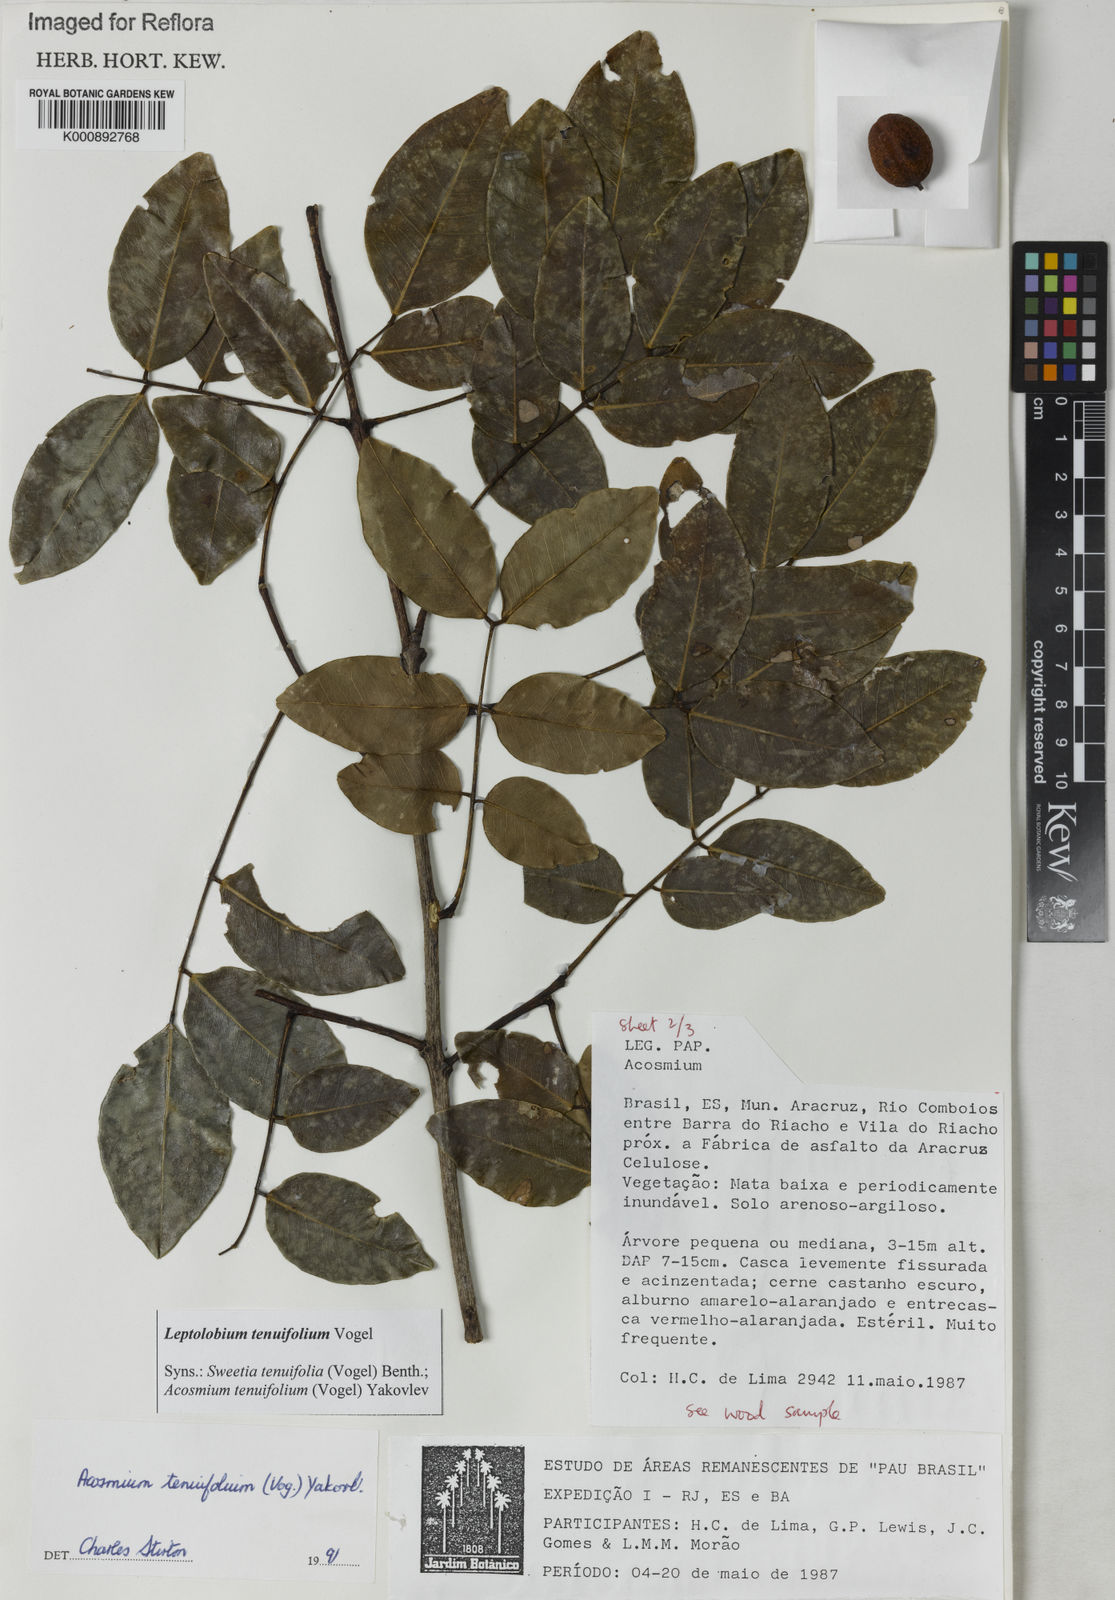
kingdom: Plantae
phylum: Tracheophyta
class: Magnoliopsida
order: Fabales
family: Fabaceae
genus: Leptolobium
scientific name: Leptolobium tenuifolium
